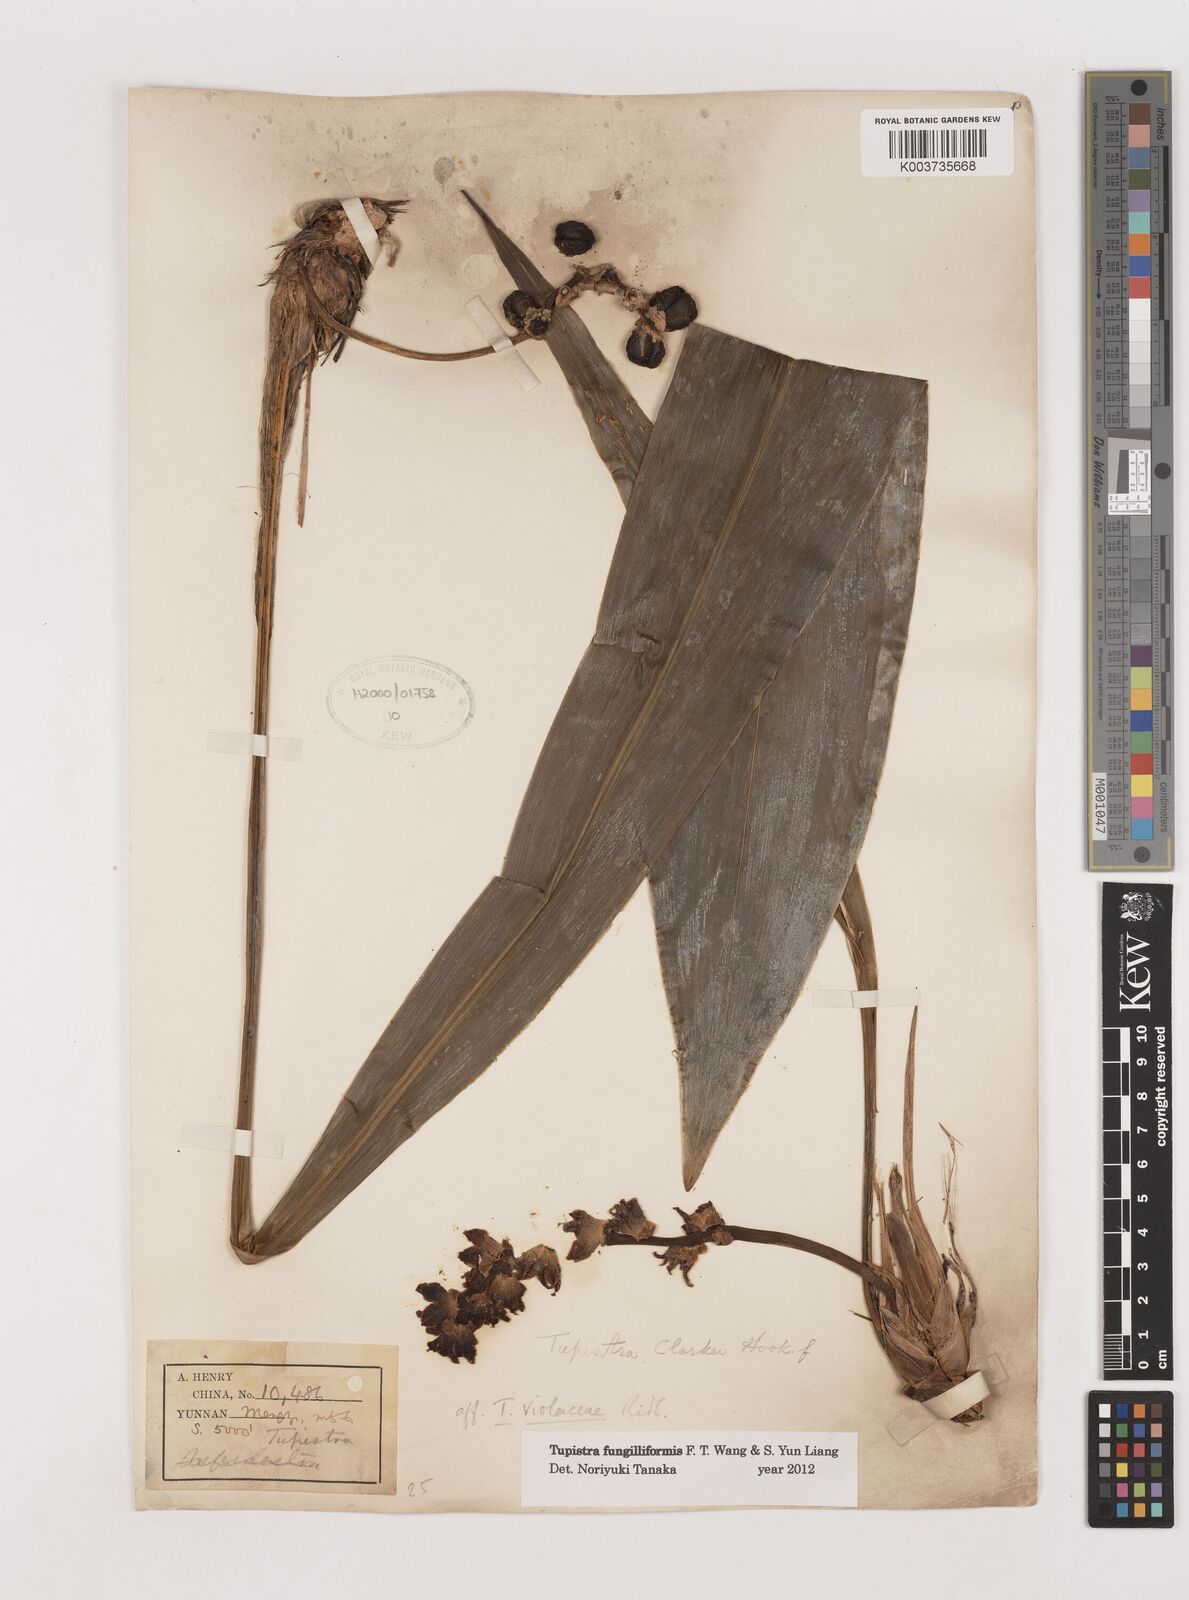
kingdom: Plantae
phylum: Tracheophyta
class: Liliopsida
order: Asparagales
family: Asparagaceae
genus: Tupistra
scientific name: Tupistra fungilliformis
